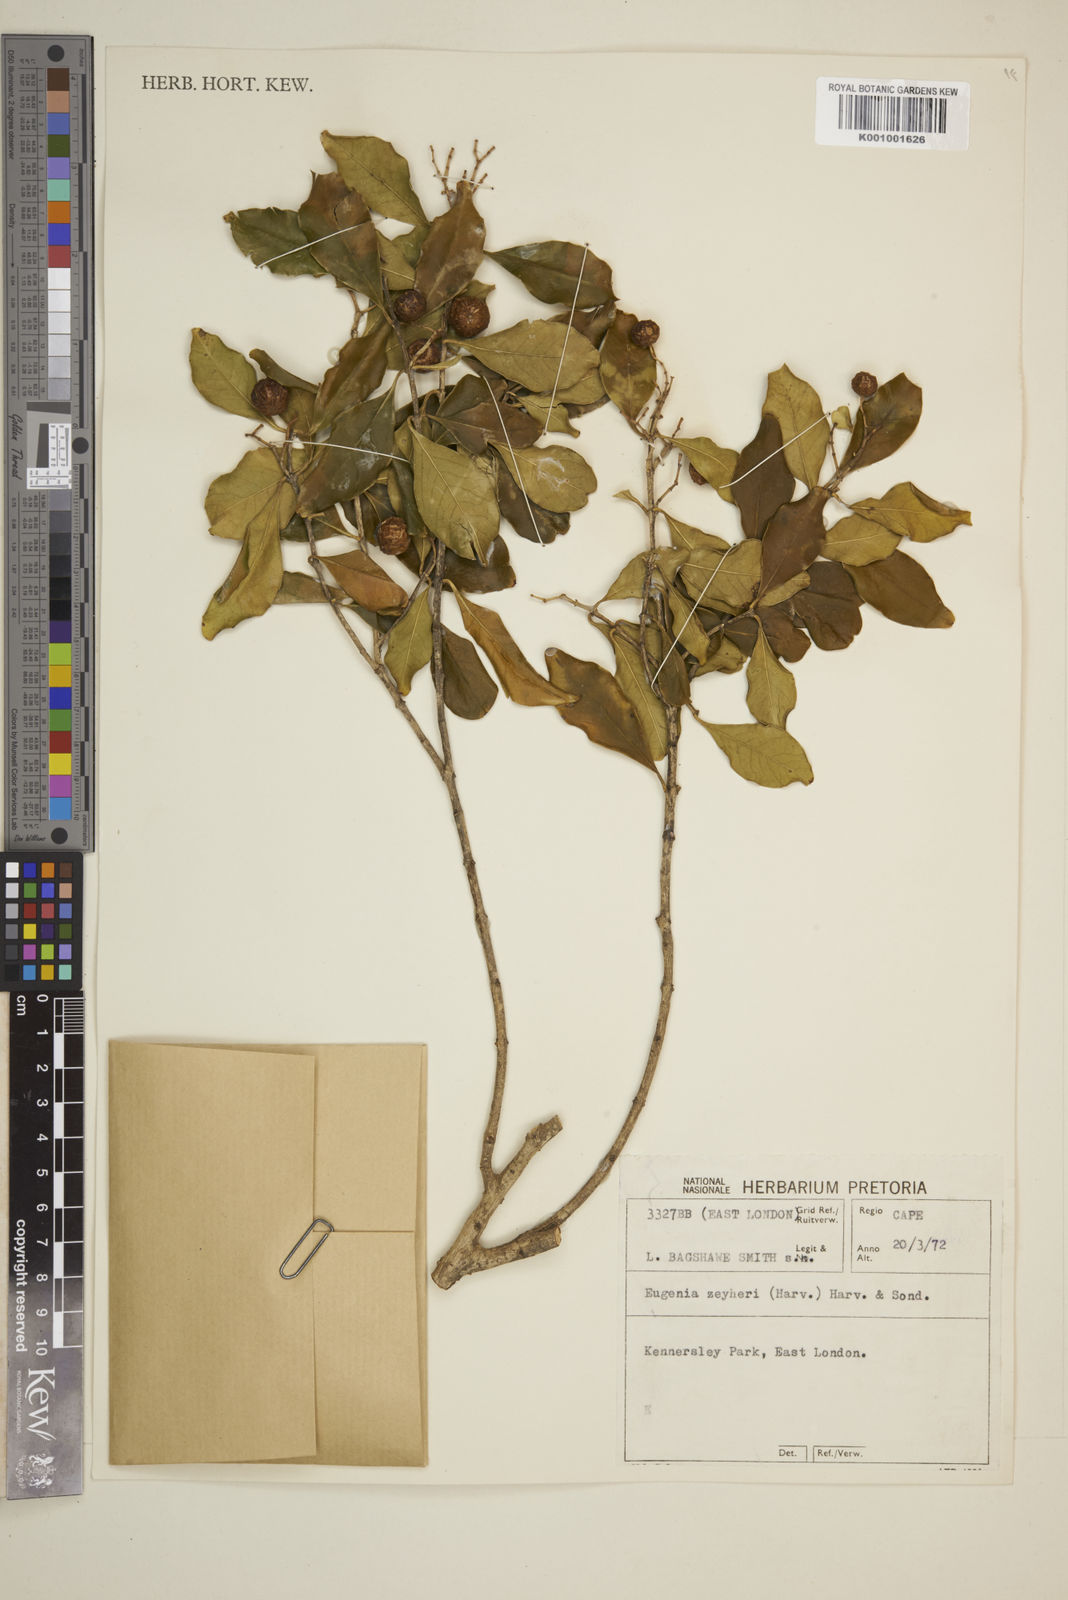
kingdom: Plantae
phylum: Tracheophyta
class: Magnoliopsida
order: Myrtales
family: Myrtaceae
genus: Eugenia
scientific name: Eugenia zeyheri
